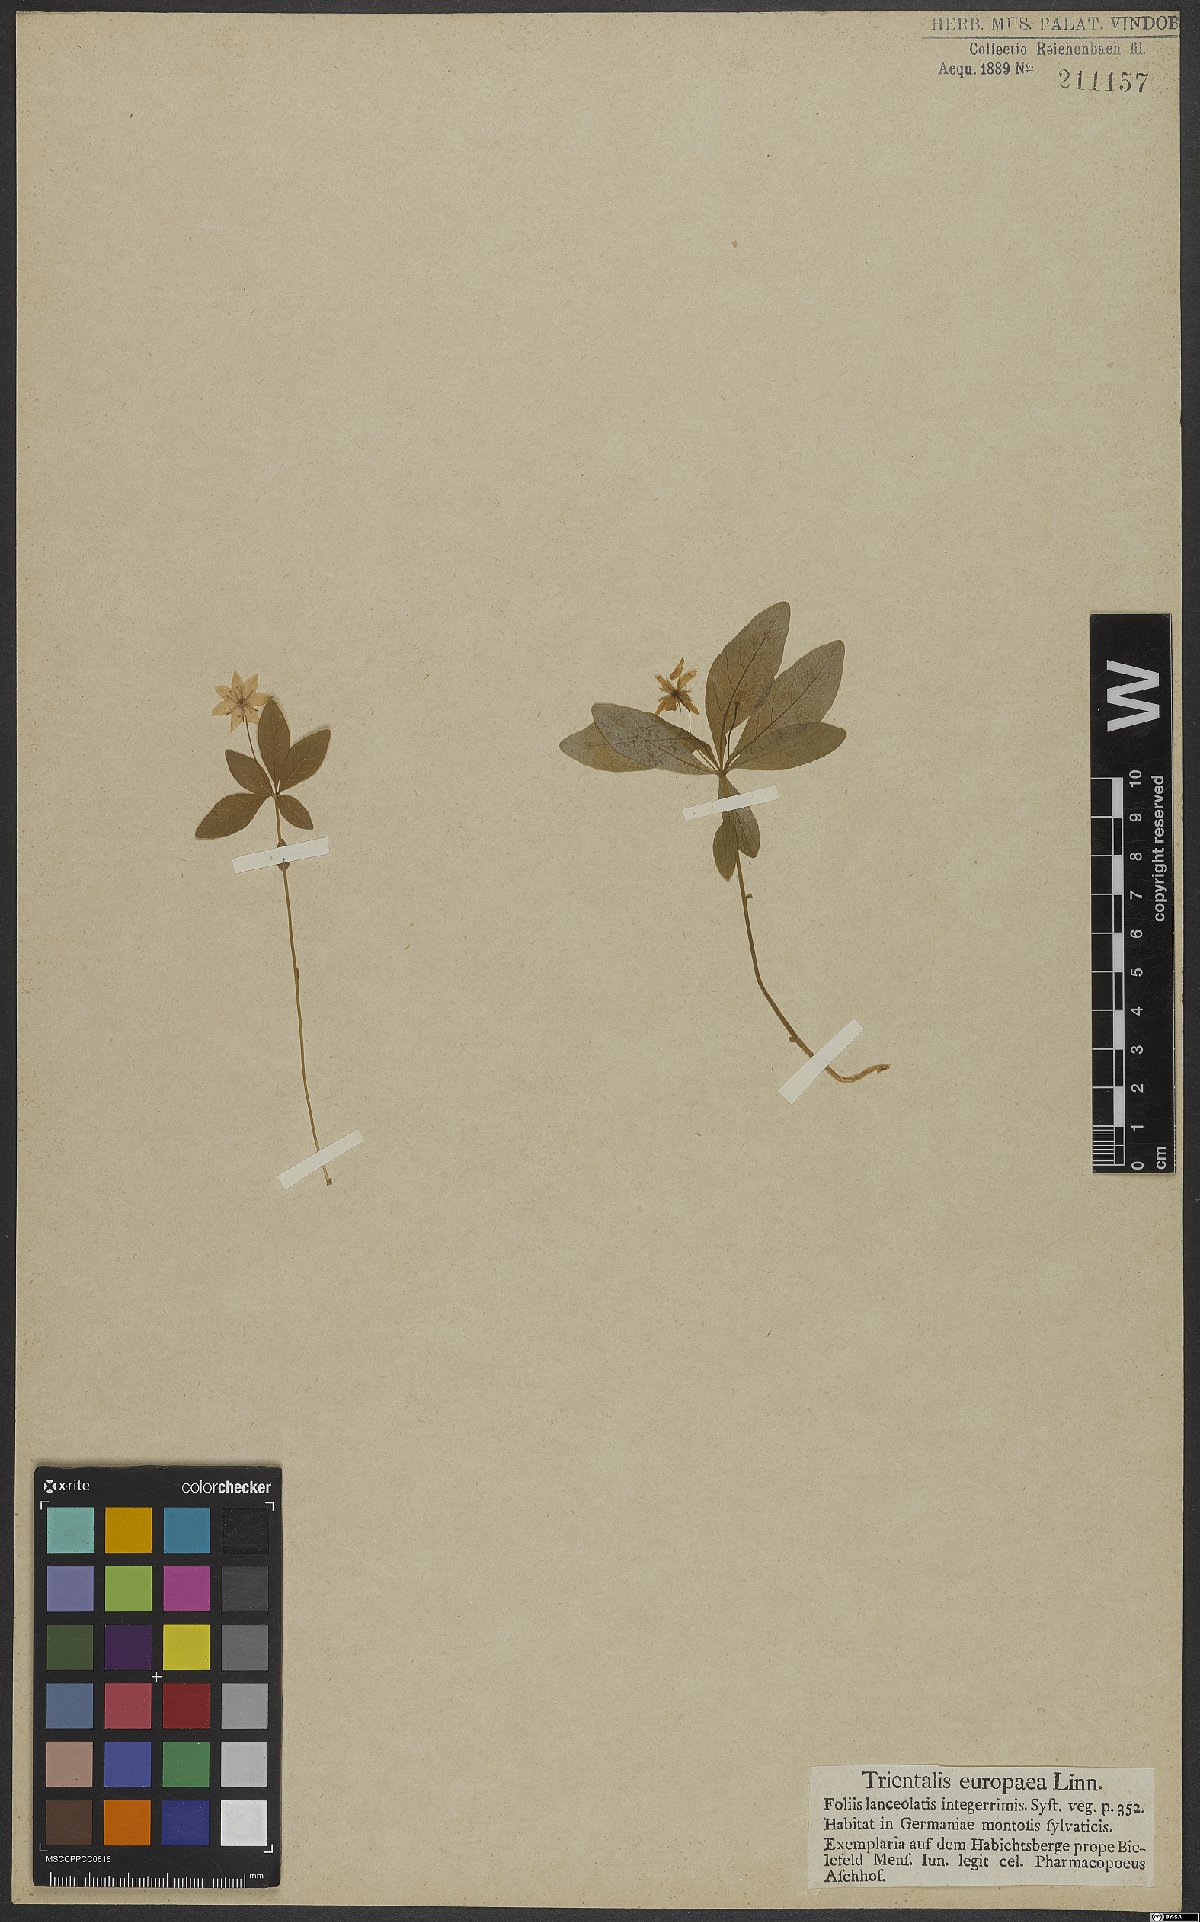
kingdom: Plantae
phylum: Tracheophyta
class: Magnoliopsida
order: Ericales
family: Primulaceae
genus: Lysimachia
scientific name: Lysimachia europaea
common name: Arctic starflower
